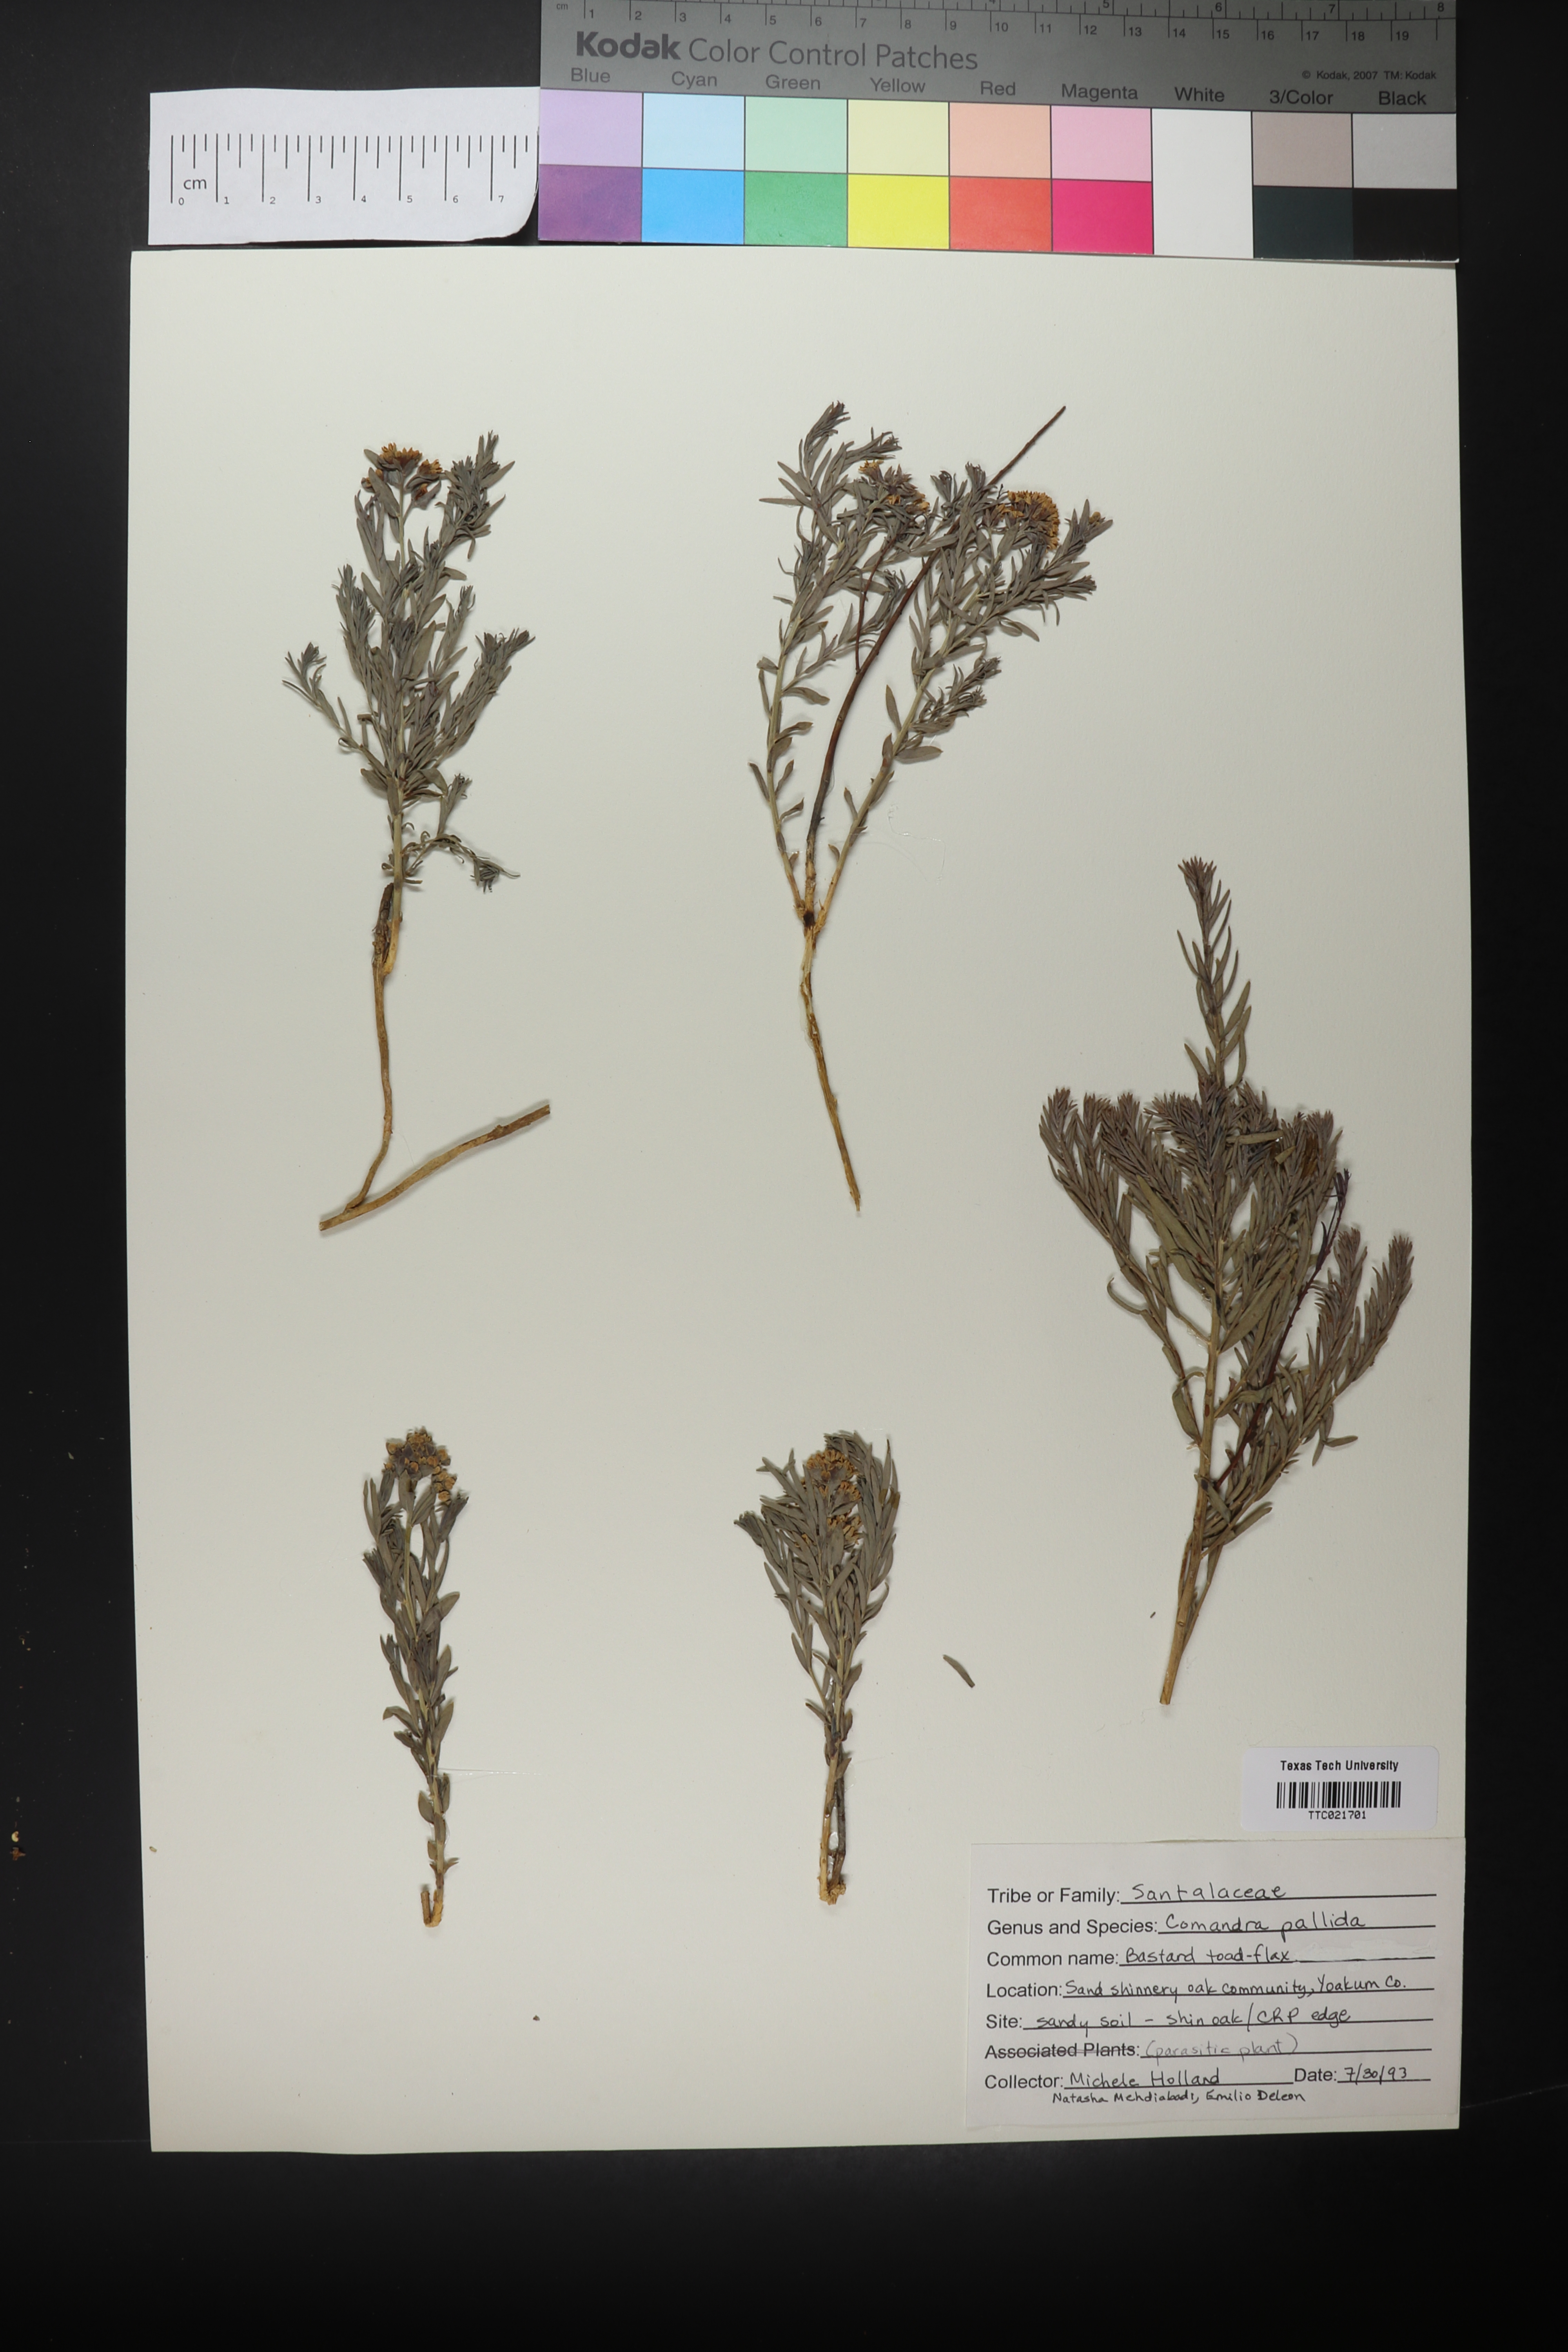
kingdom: Plantae
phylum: Tracheophyta
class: Magnoliopsida
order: Santalales
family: Comandraceae
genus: Comandra
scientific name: Comandra umbellata
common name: Bastard toadflax
